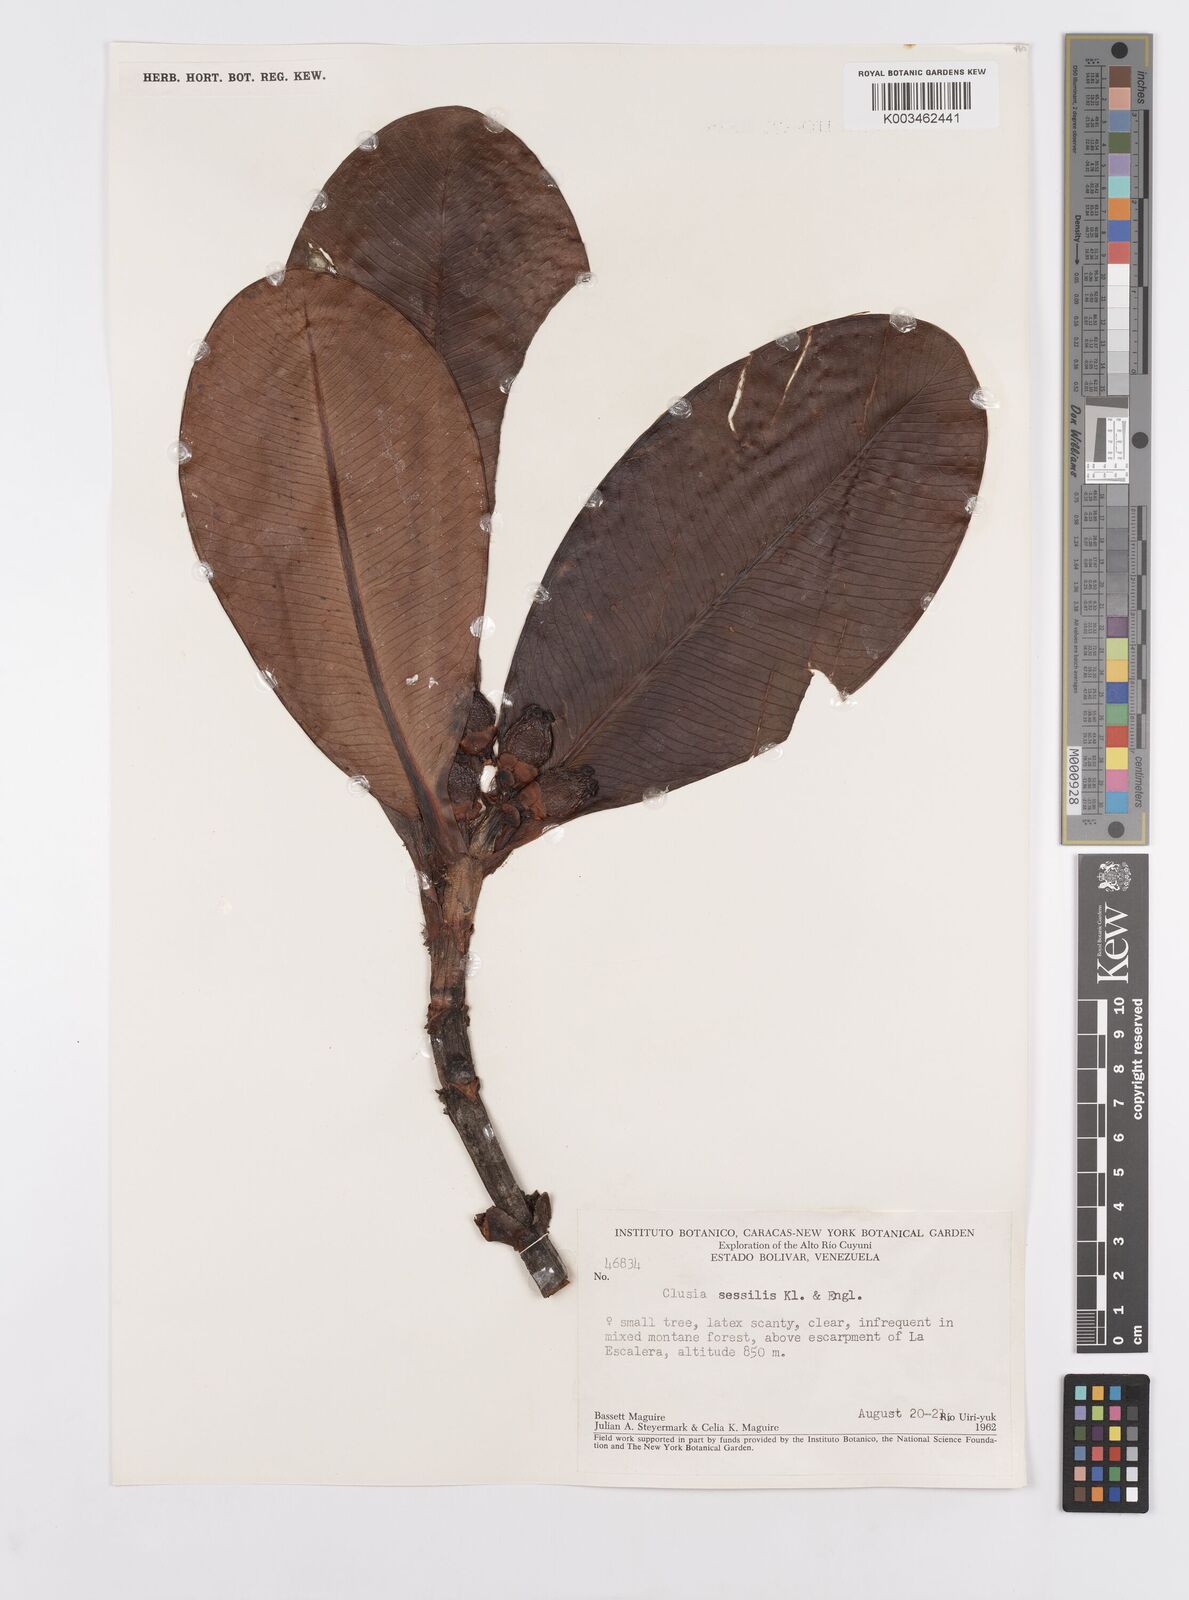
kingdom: Plantae
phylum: Tracheophyta
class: Magnoliopsida
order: Malpighiales
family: Clusiaceae
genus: Garcinia
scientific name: Garcinia sessilis
